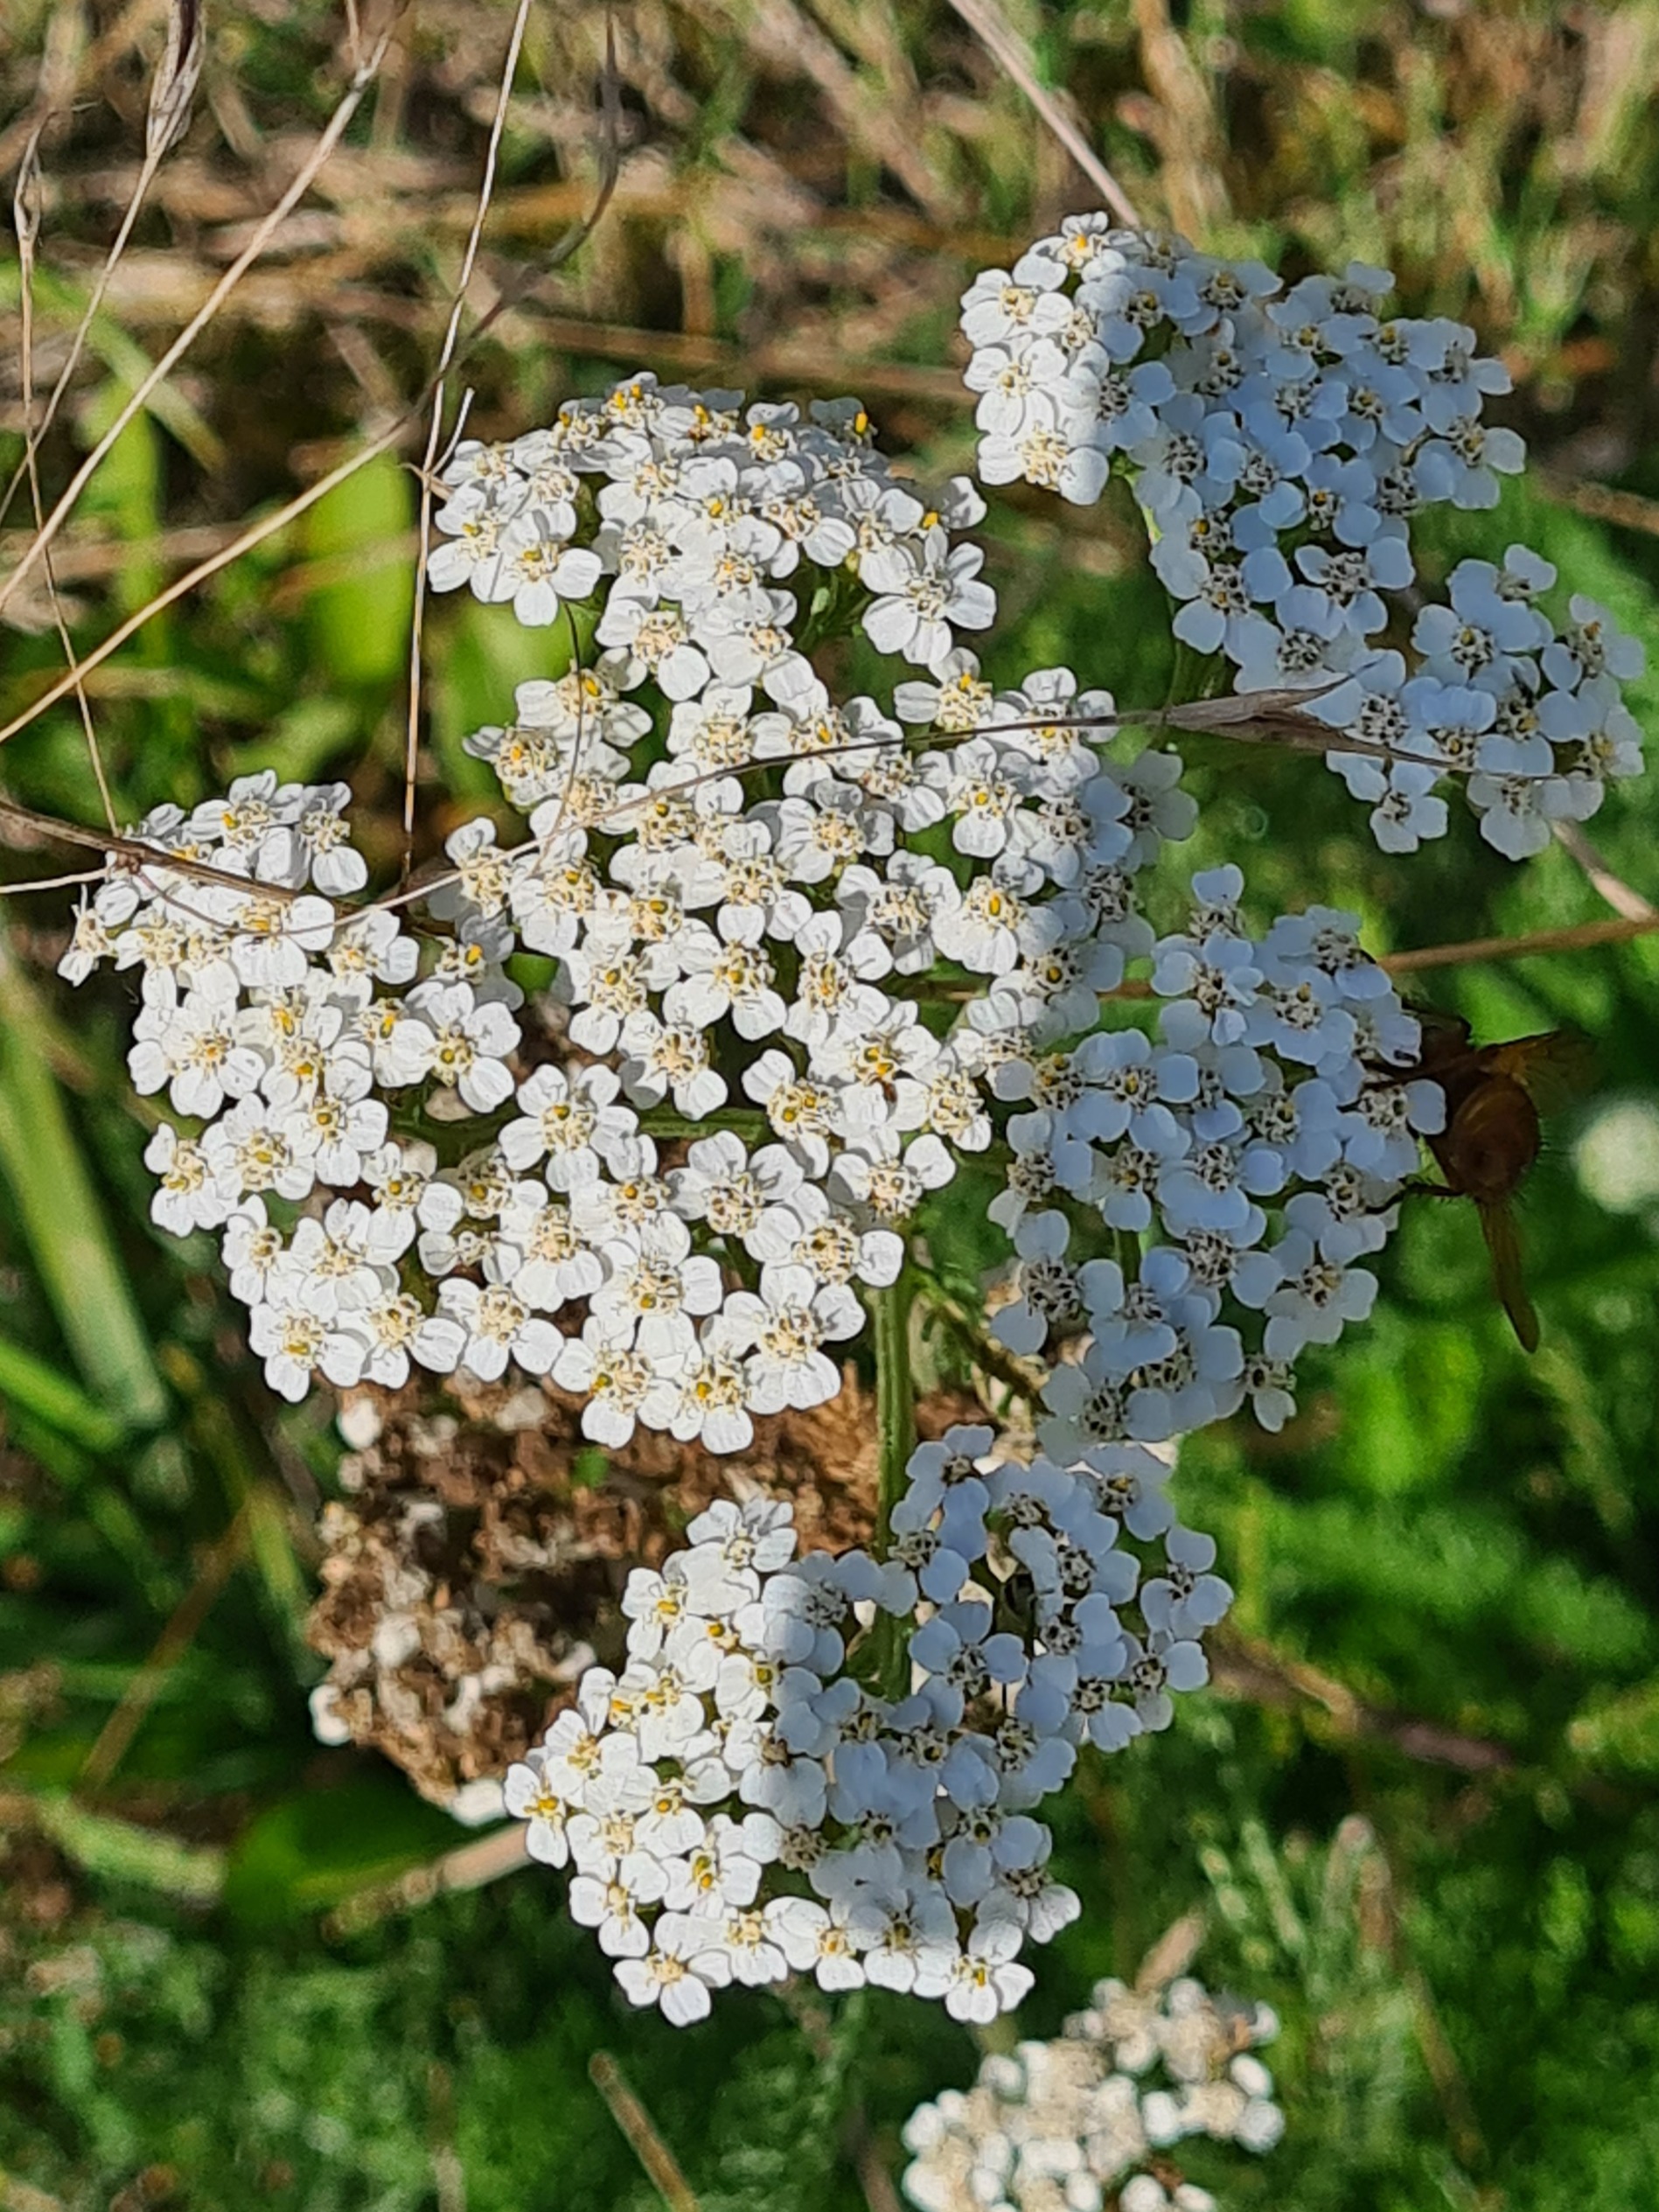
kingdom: Plantae
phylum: Tracheophyta
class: Magnoliopsida
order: Asterales
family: Asteraceae
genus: Achillea
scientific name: Achillea millefolium
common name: Almindelig røllike
